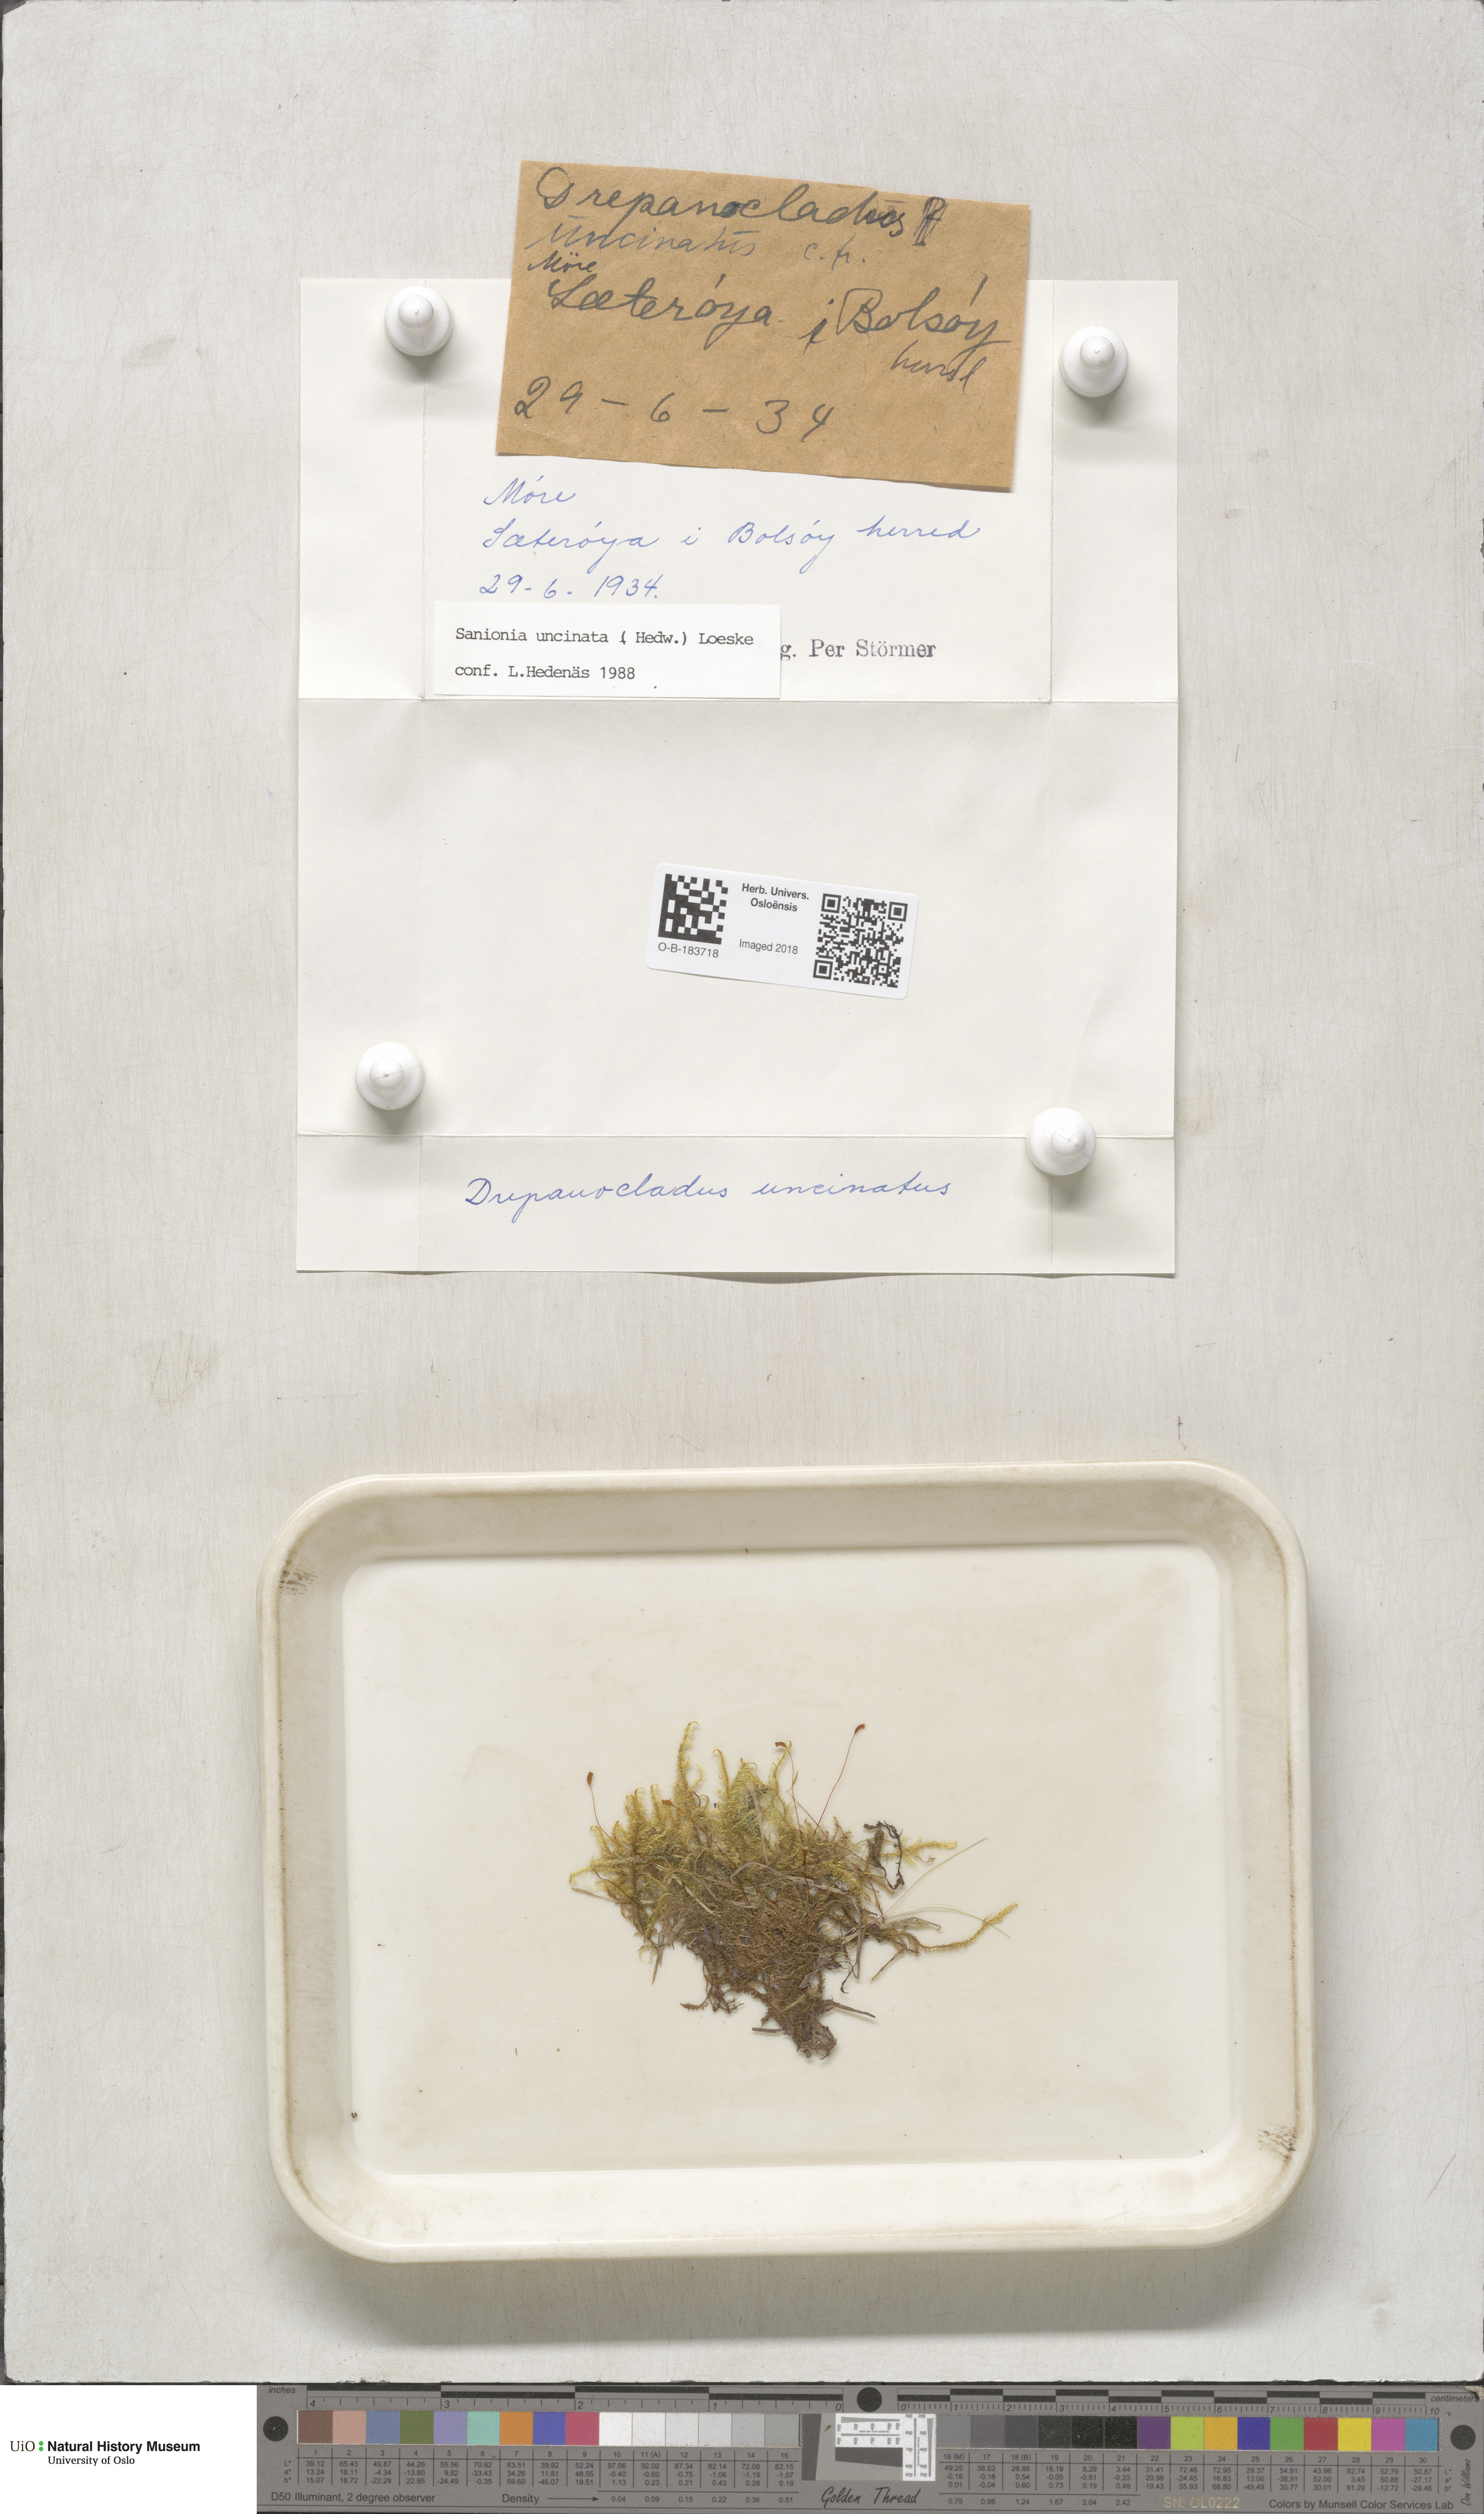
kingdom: Plantae
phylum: Bryophyta
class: Bryopsida
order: Hypnales
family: Scorpidiaceae
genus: Sanionia
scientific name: Sanionia uncinata
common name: Sickle moss
